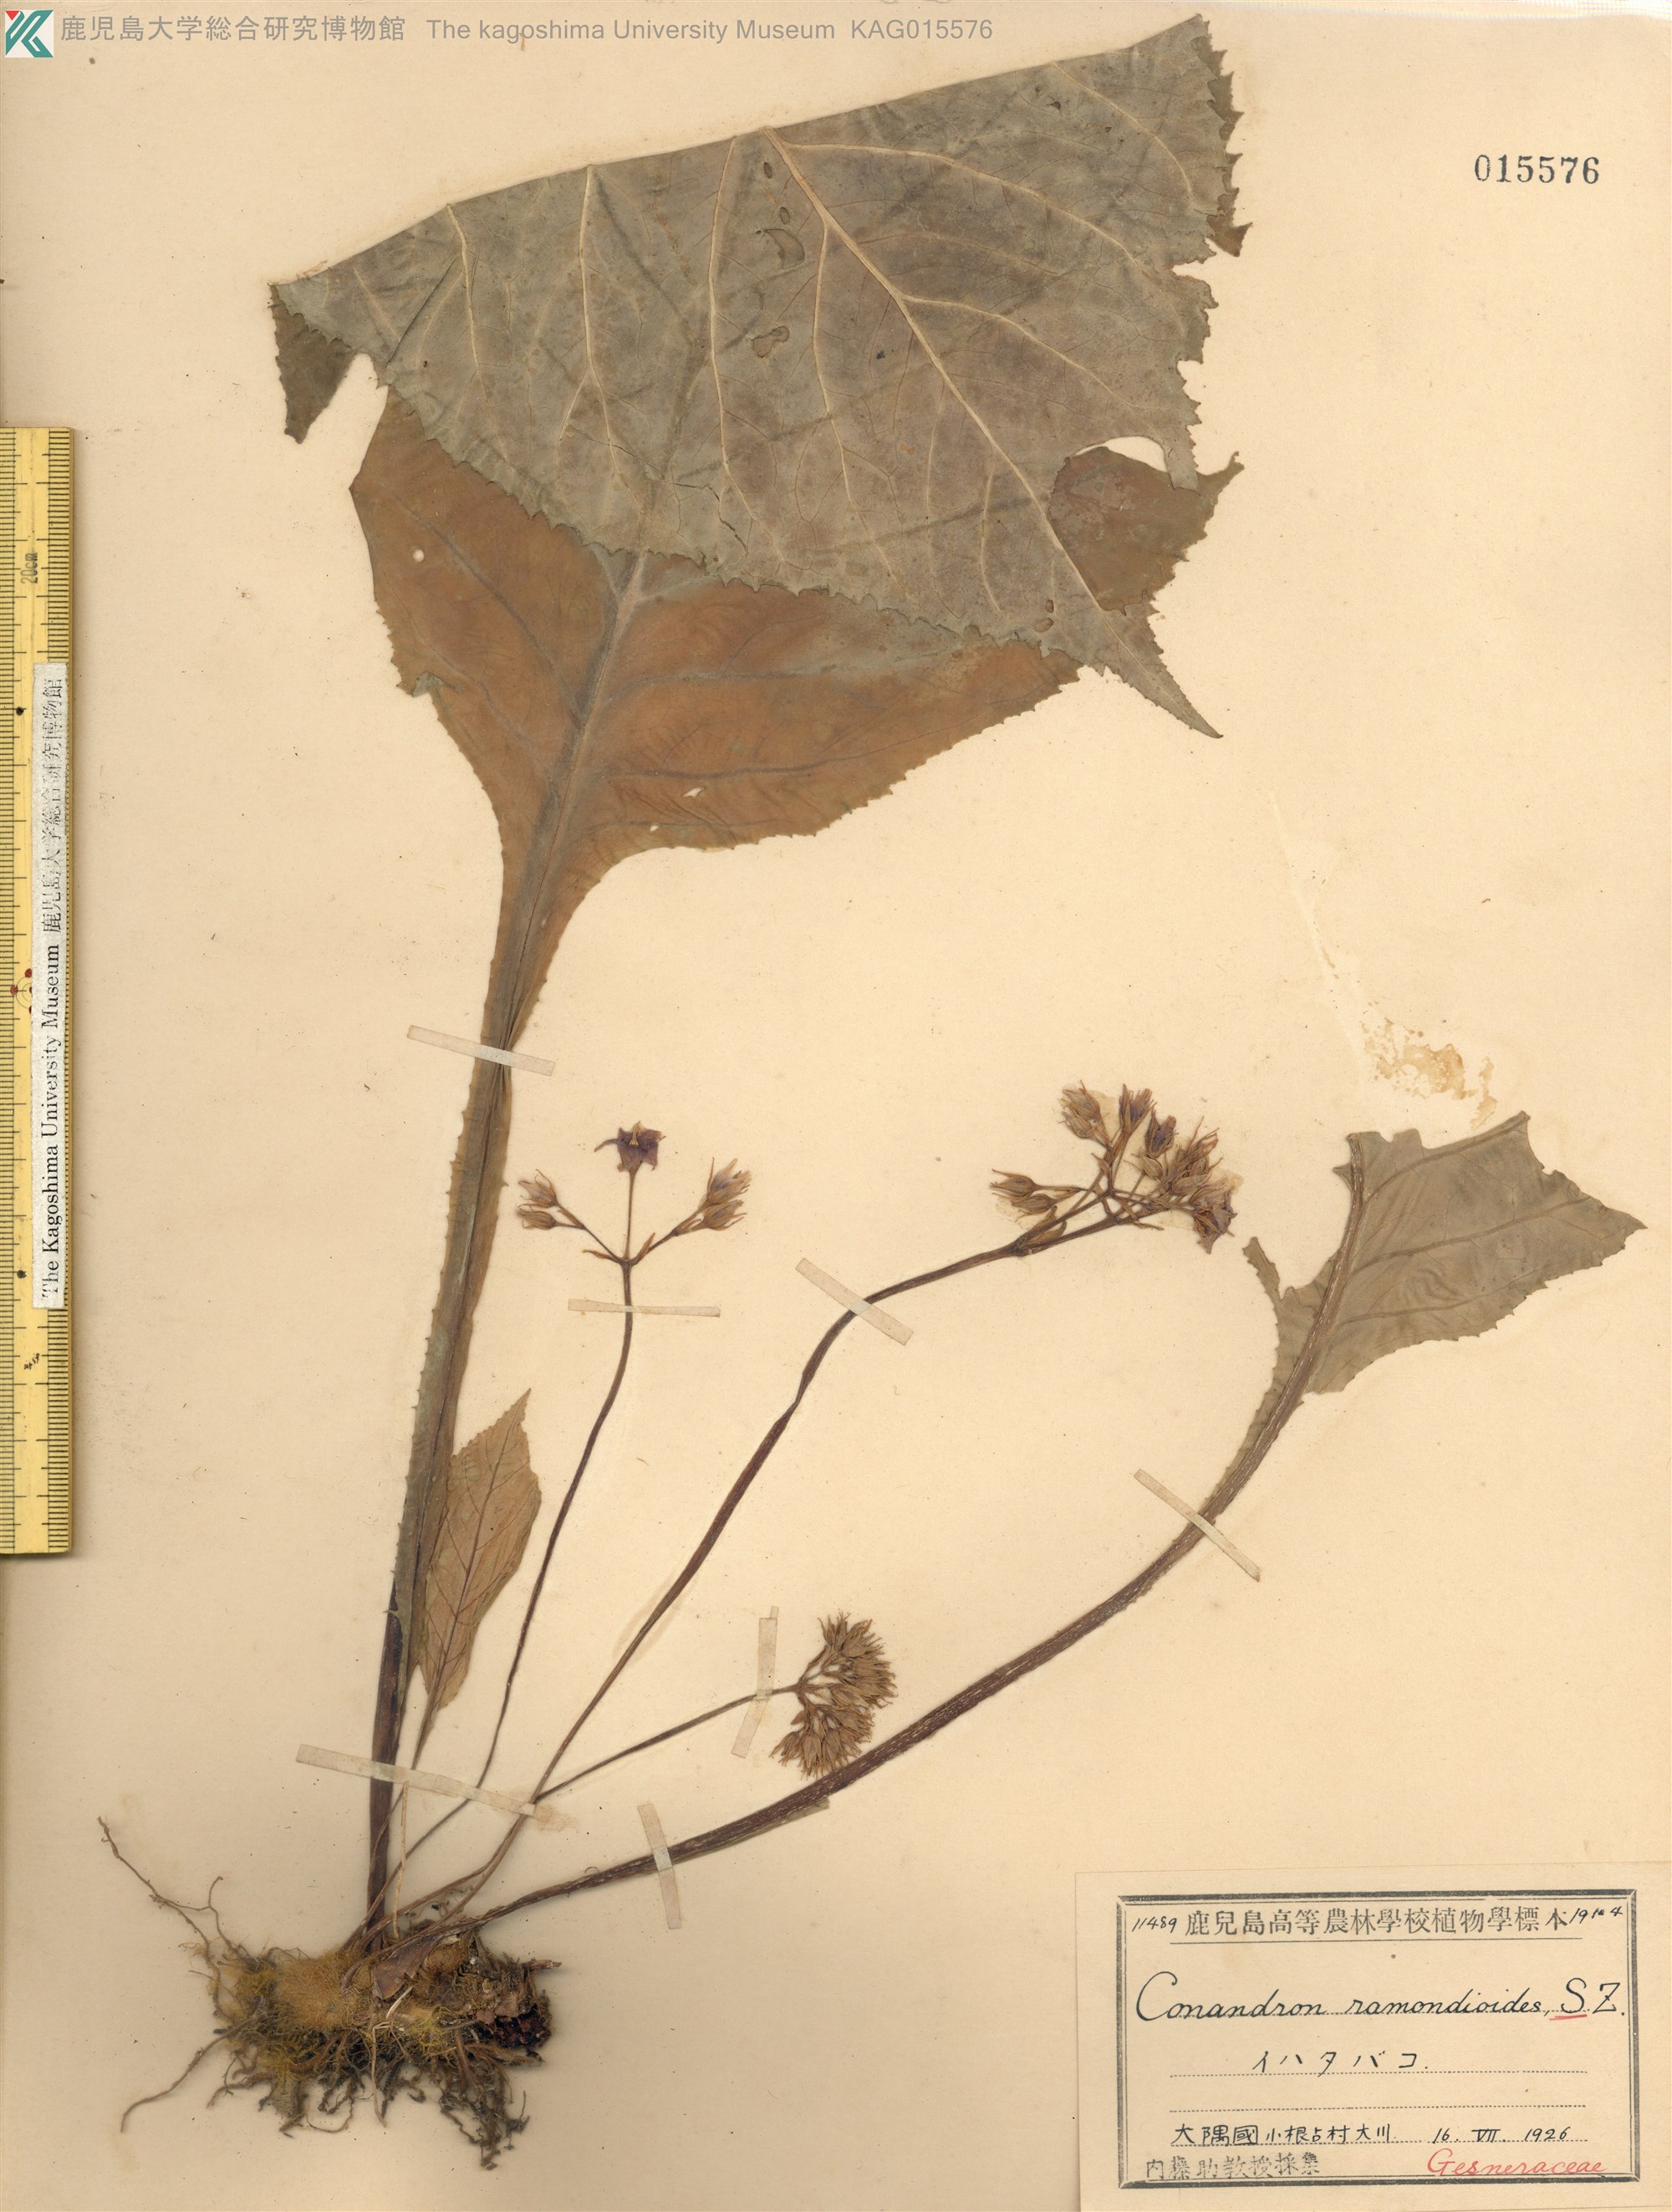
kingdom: Plantae
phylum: Tracheophyta
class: Magnoliopsida
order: Lamiales
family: Gesneriaceae
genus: Conandron
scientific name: Conandron ramondioides
